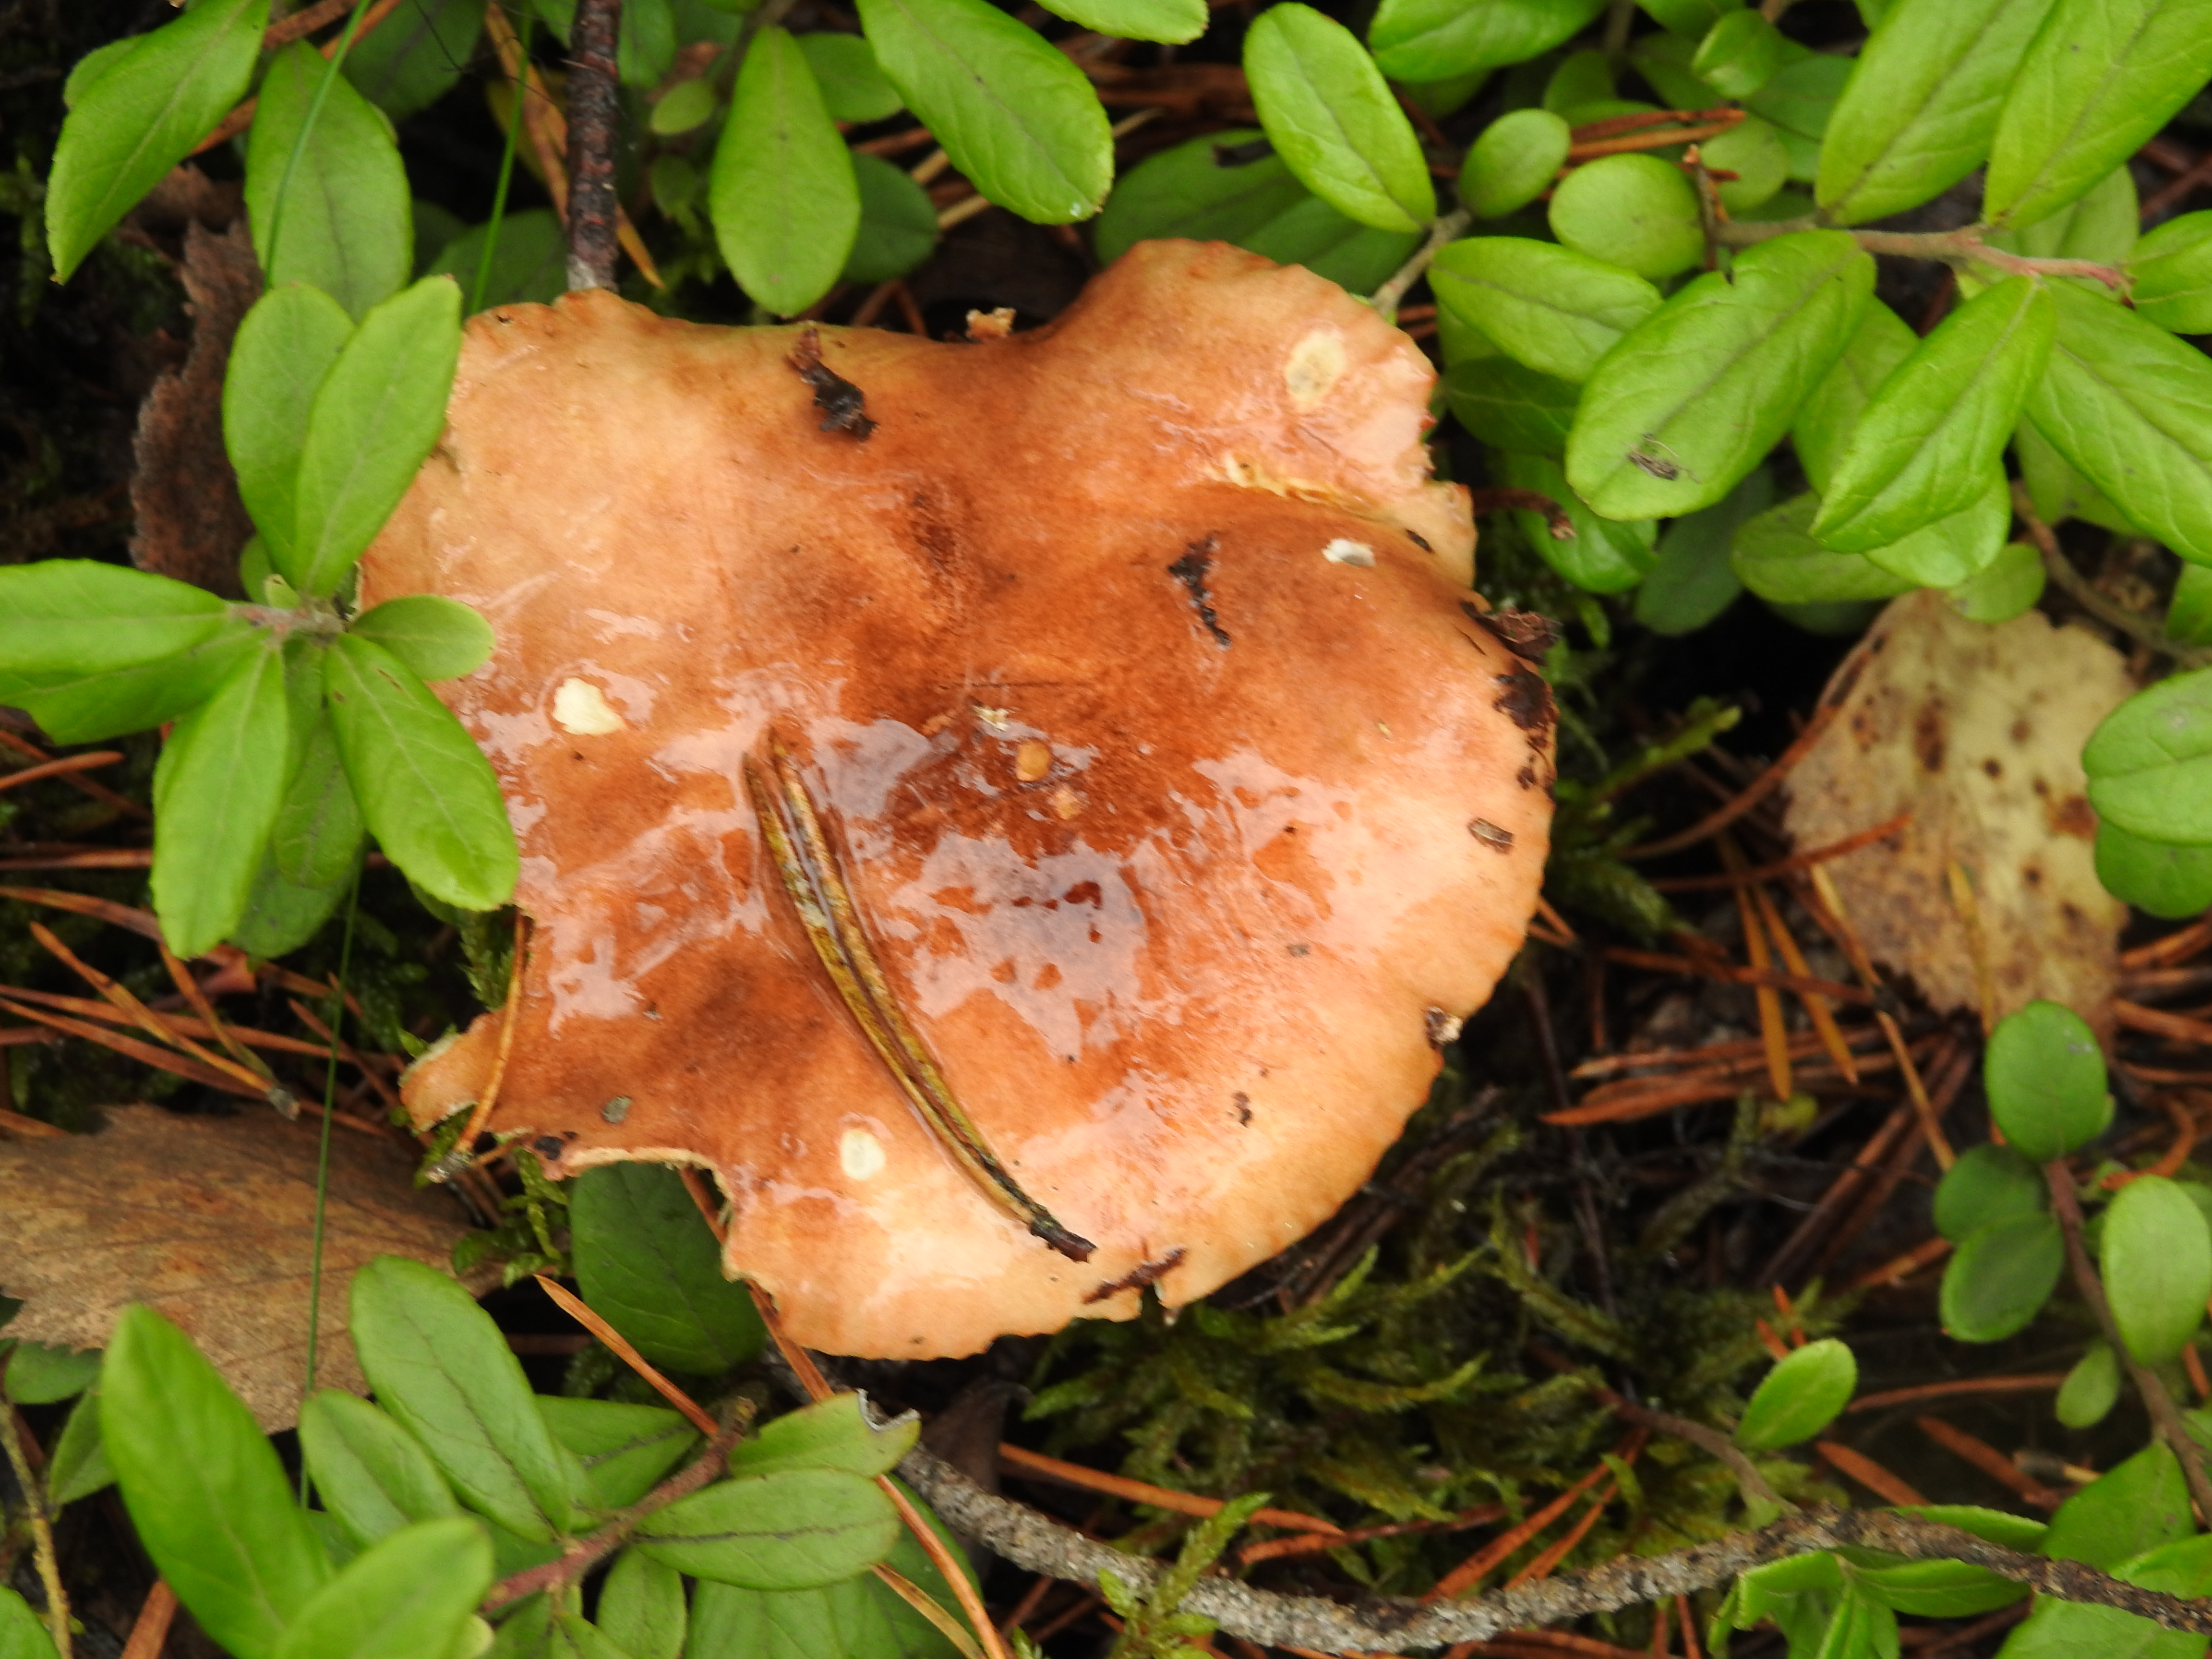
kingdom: Fungi
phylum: Basidiomycota
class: Agaricomycetes
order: Agaricales
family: Tricholomataceae
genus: Tricholoma
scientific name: Tricholoma stans
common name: Upright knight
